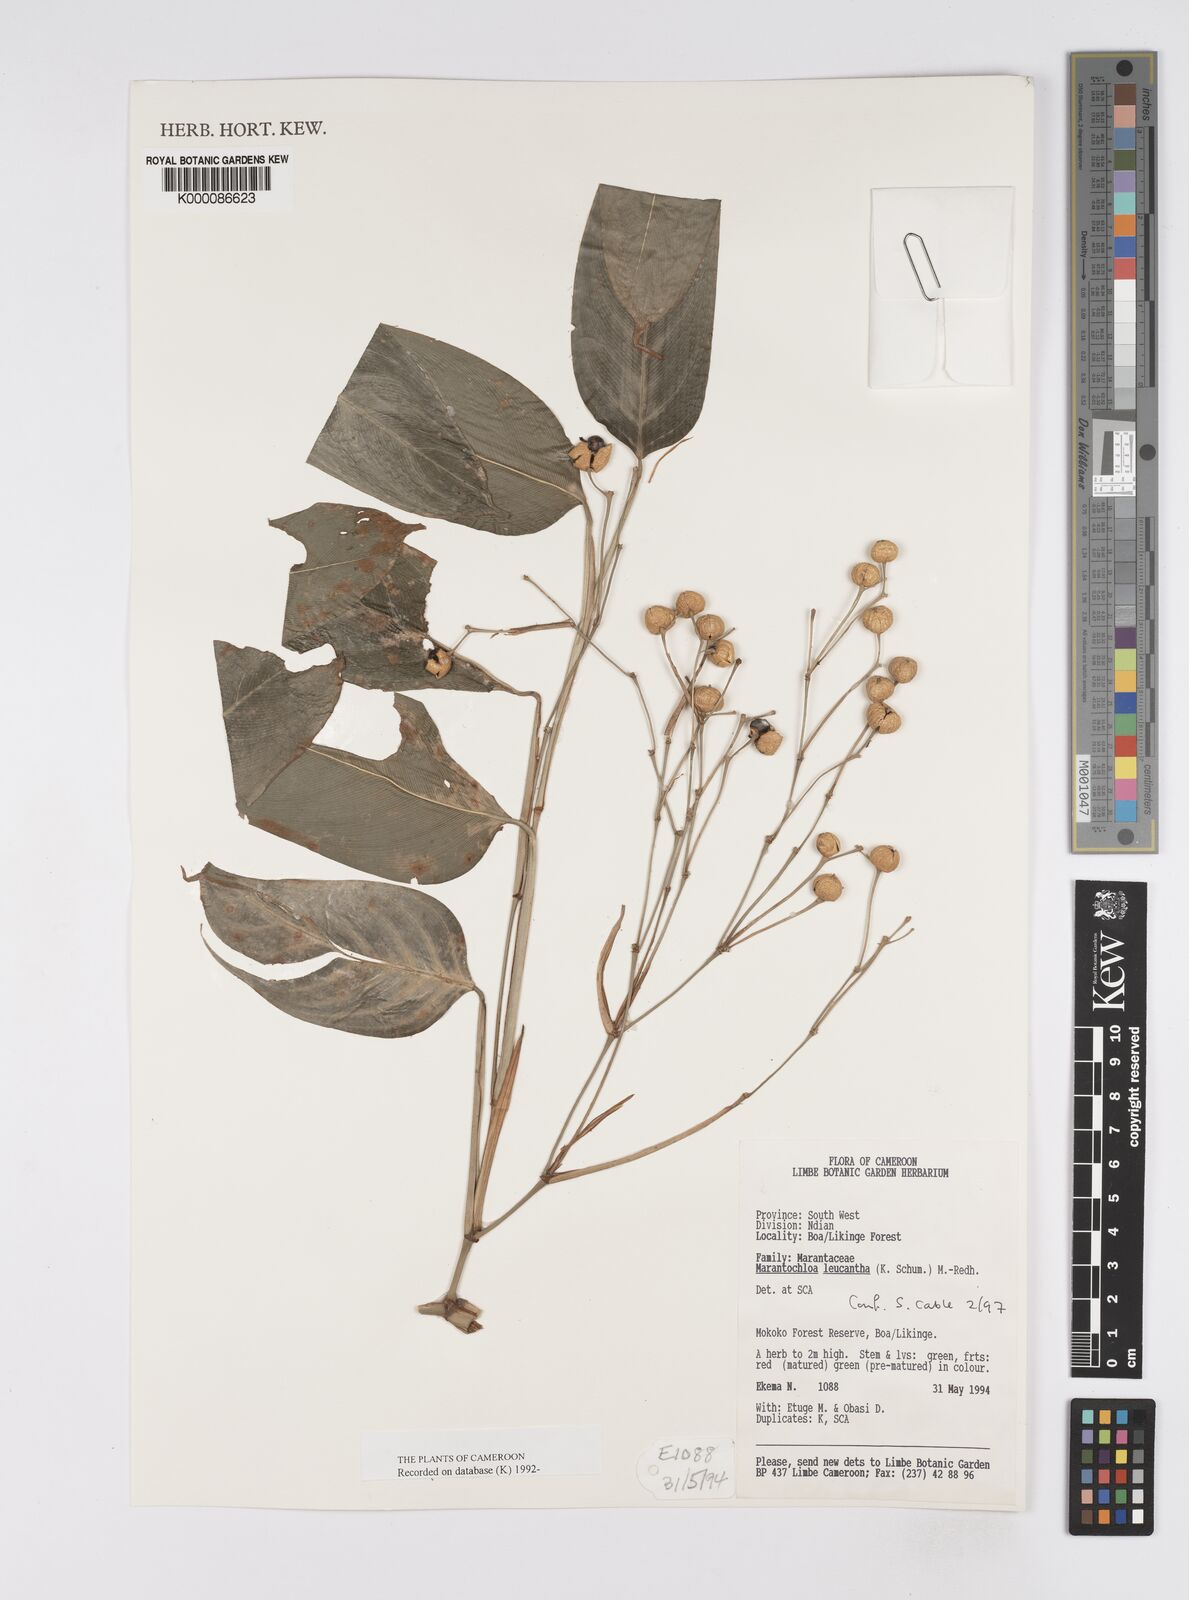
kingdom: Plantae
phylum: Tracheophyta
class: Liliopsida
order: Zingiberales
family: Marantaceae
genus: Marantochloa
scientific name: Marantochloa leucantha
